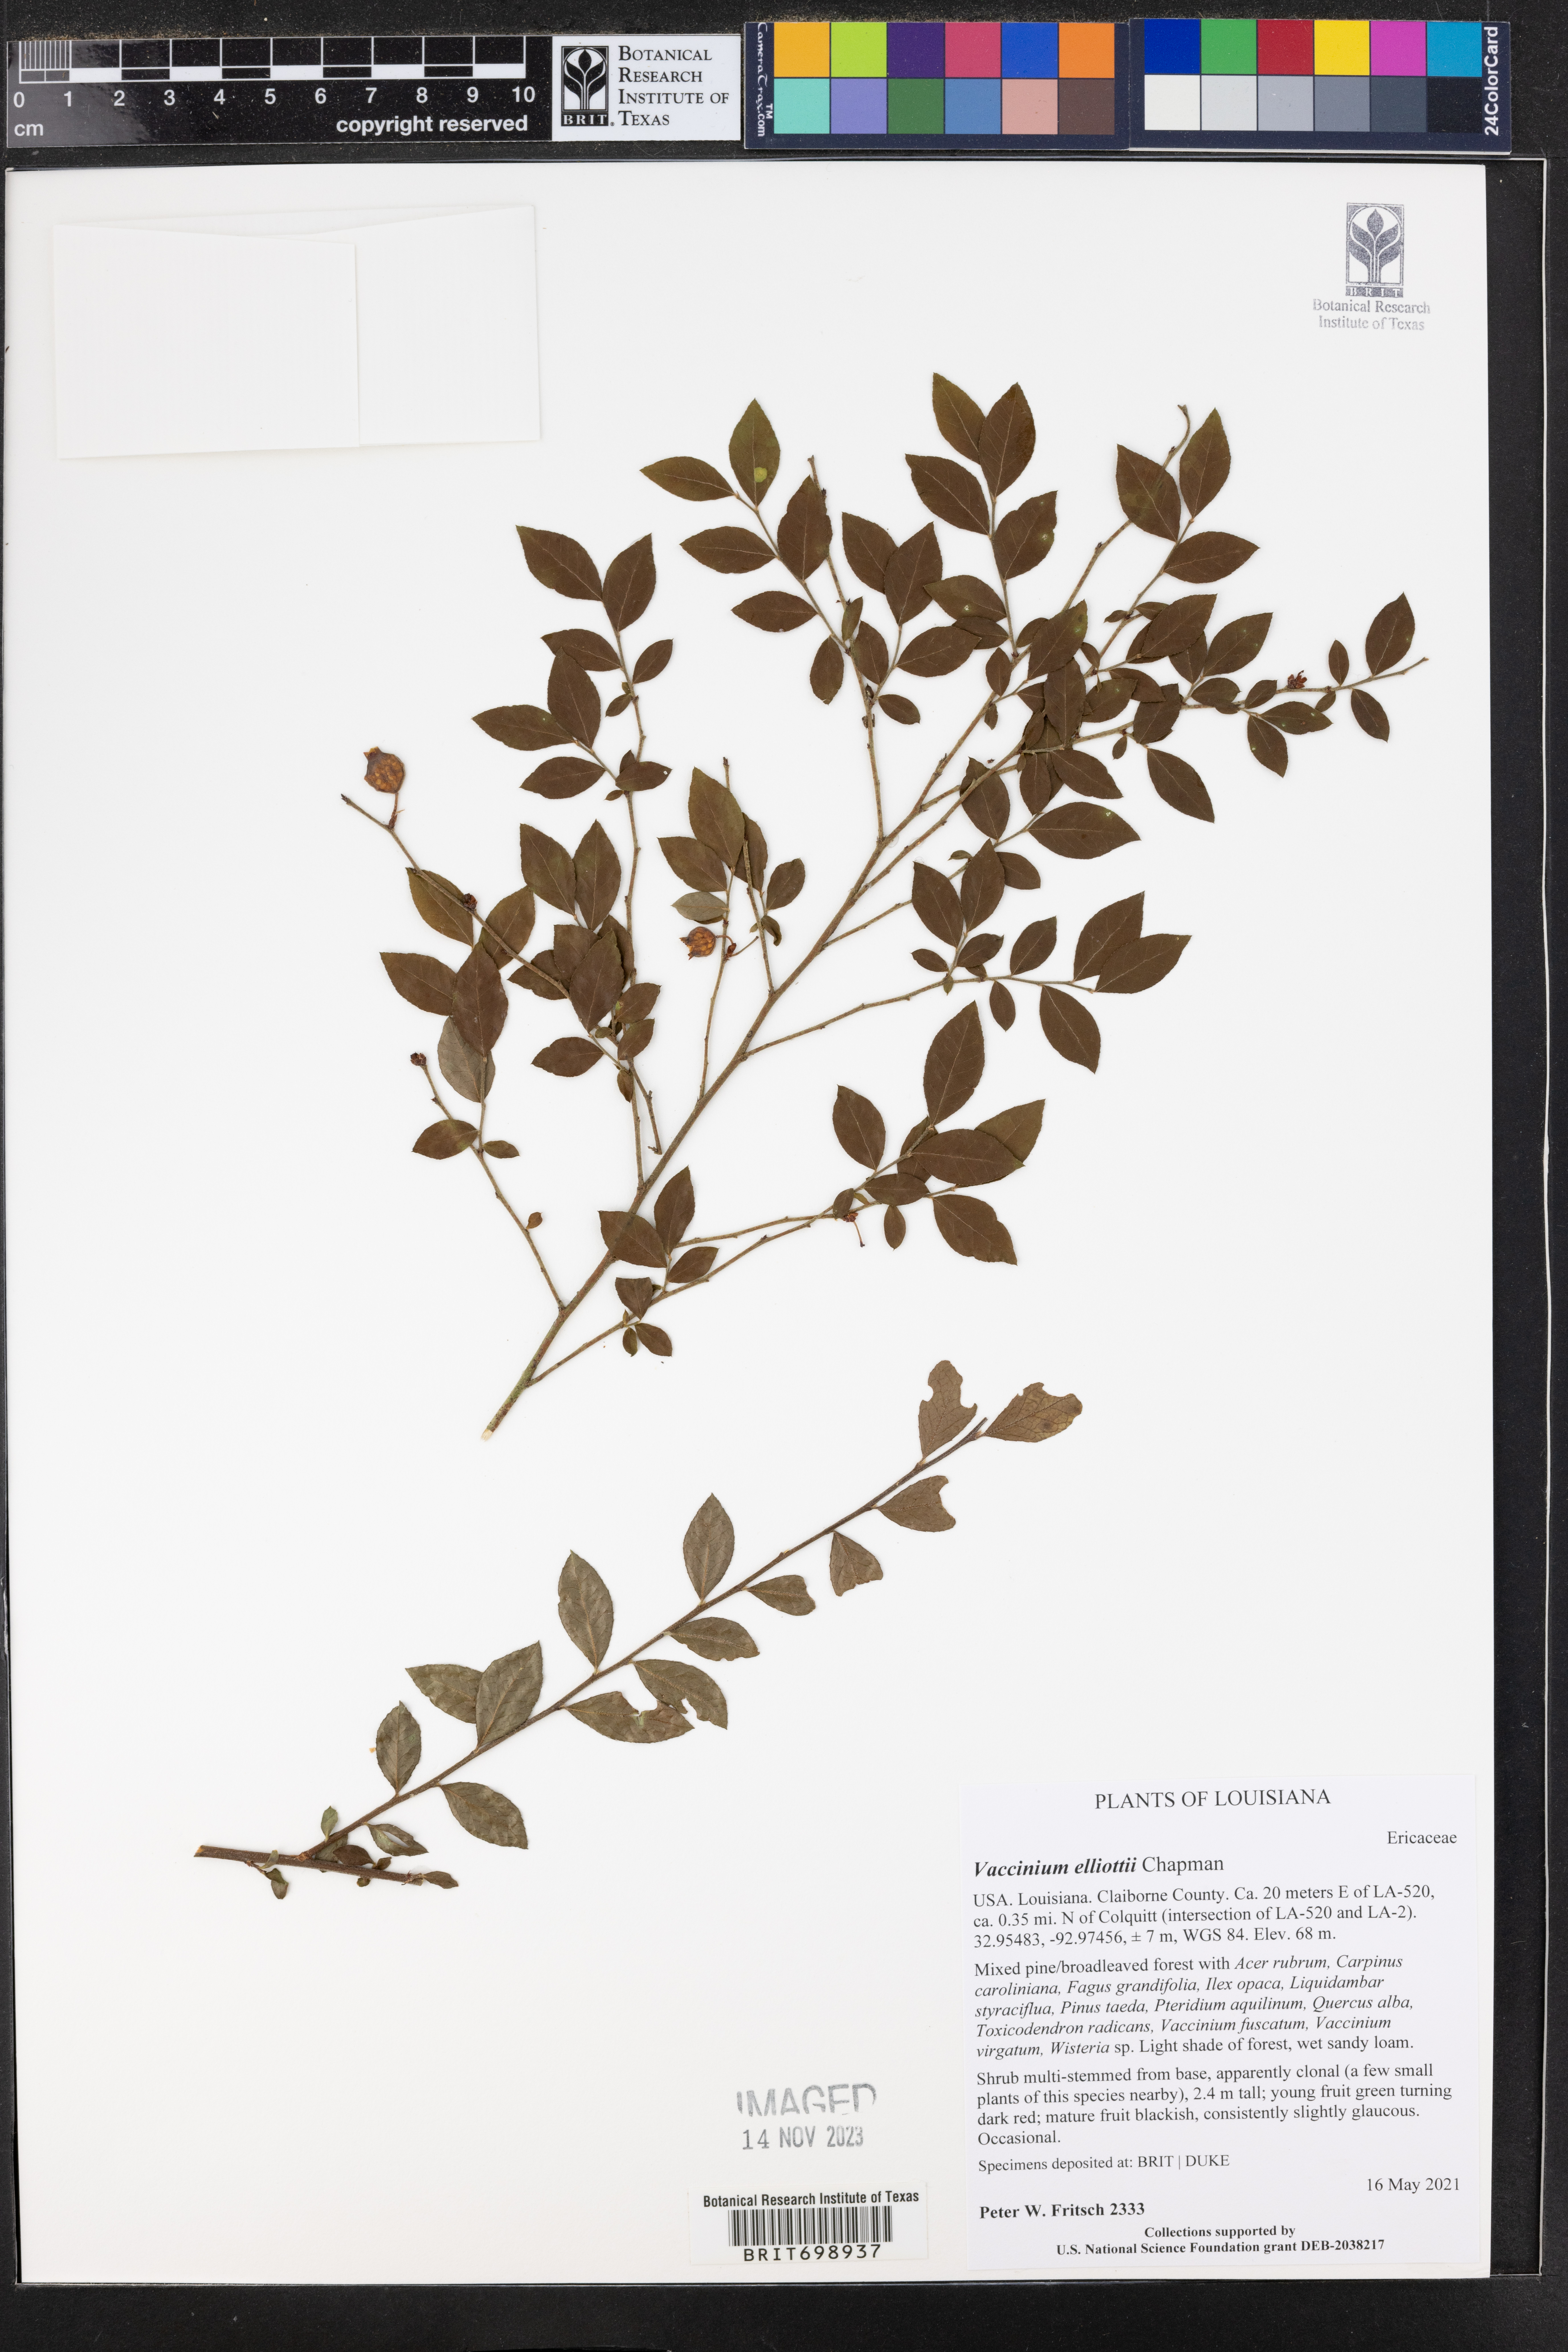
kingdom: Plantae
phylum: Tracheophyta
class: Magnoliopsida
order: Ericales
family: Ericaceae
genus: Vaccinium
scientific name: Vaccinium corymbosum
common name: Blueberry
